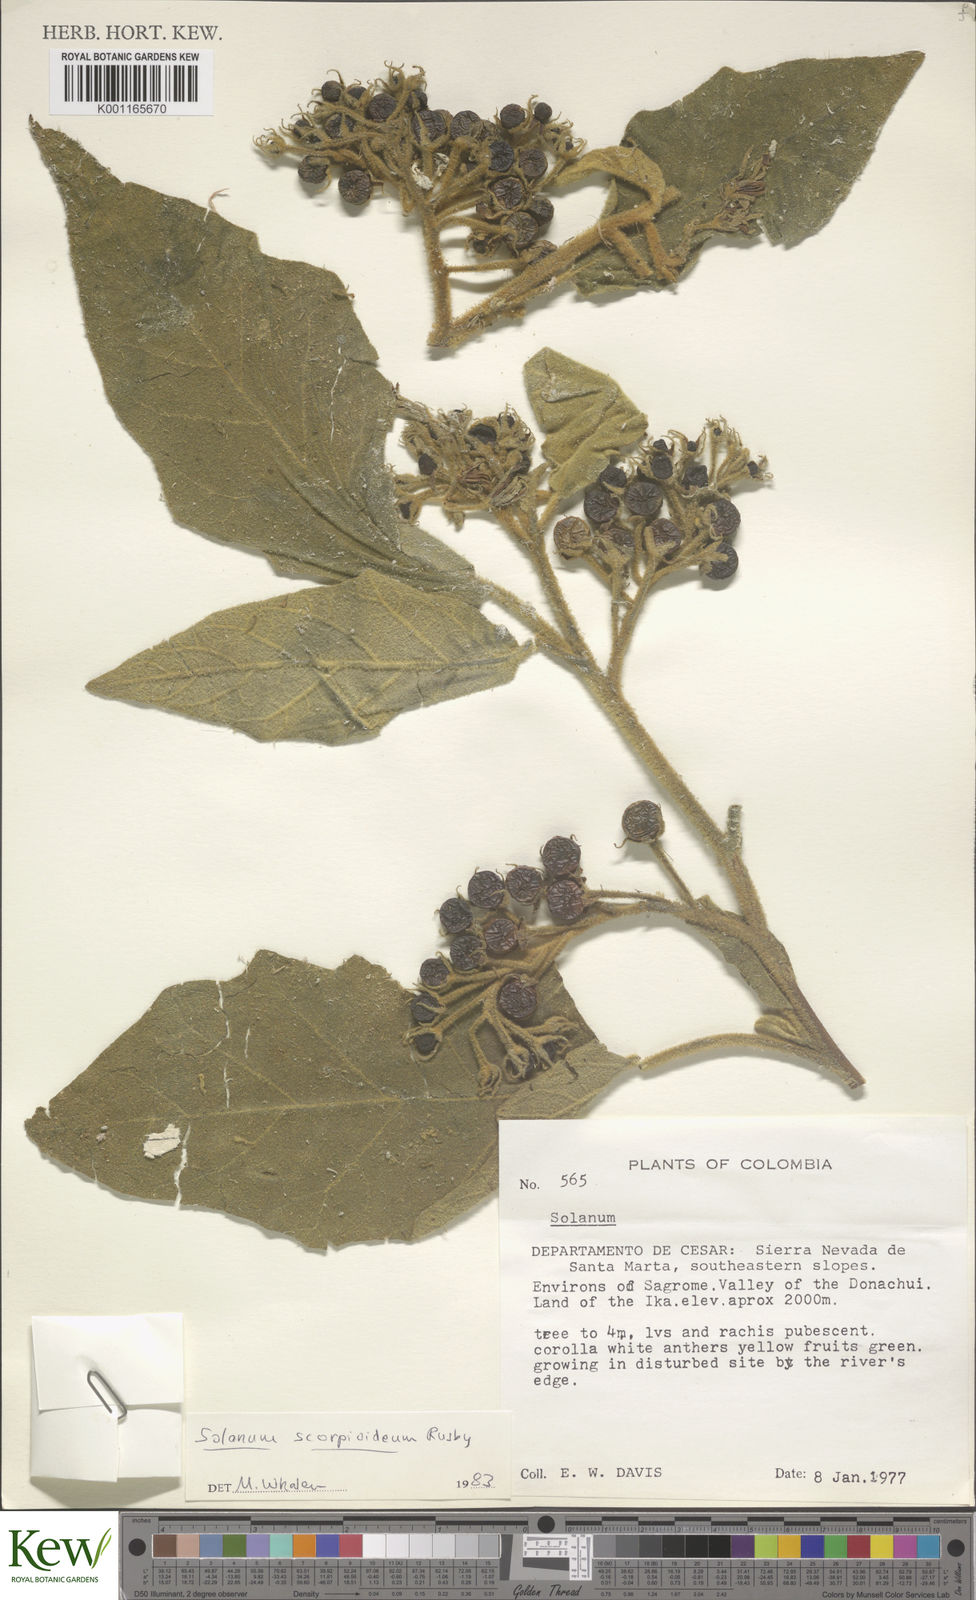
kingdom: Plantae
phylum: Tracheophyta
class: Magnoliopsida
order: Solanales
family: Solanaceae
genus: Solanum
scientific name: Solanum chrysotrichum
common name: Nightshade
